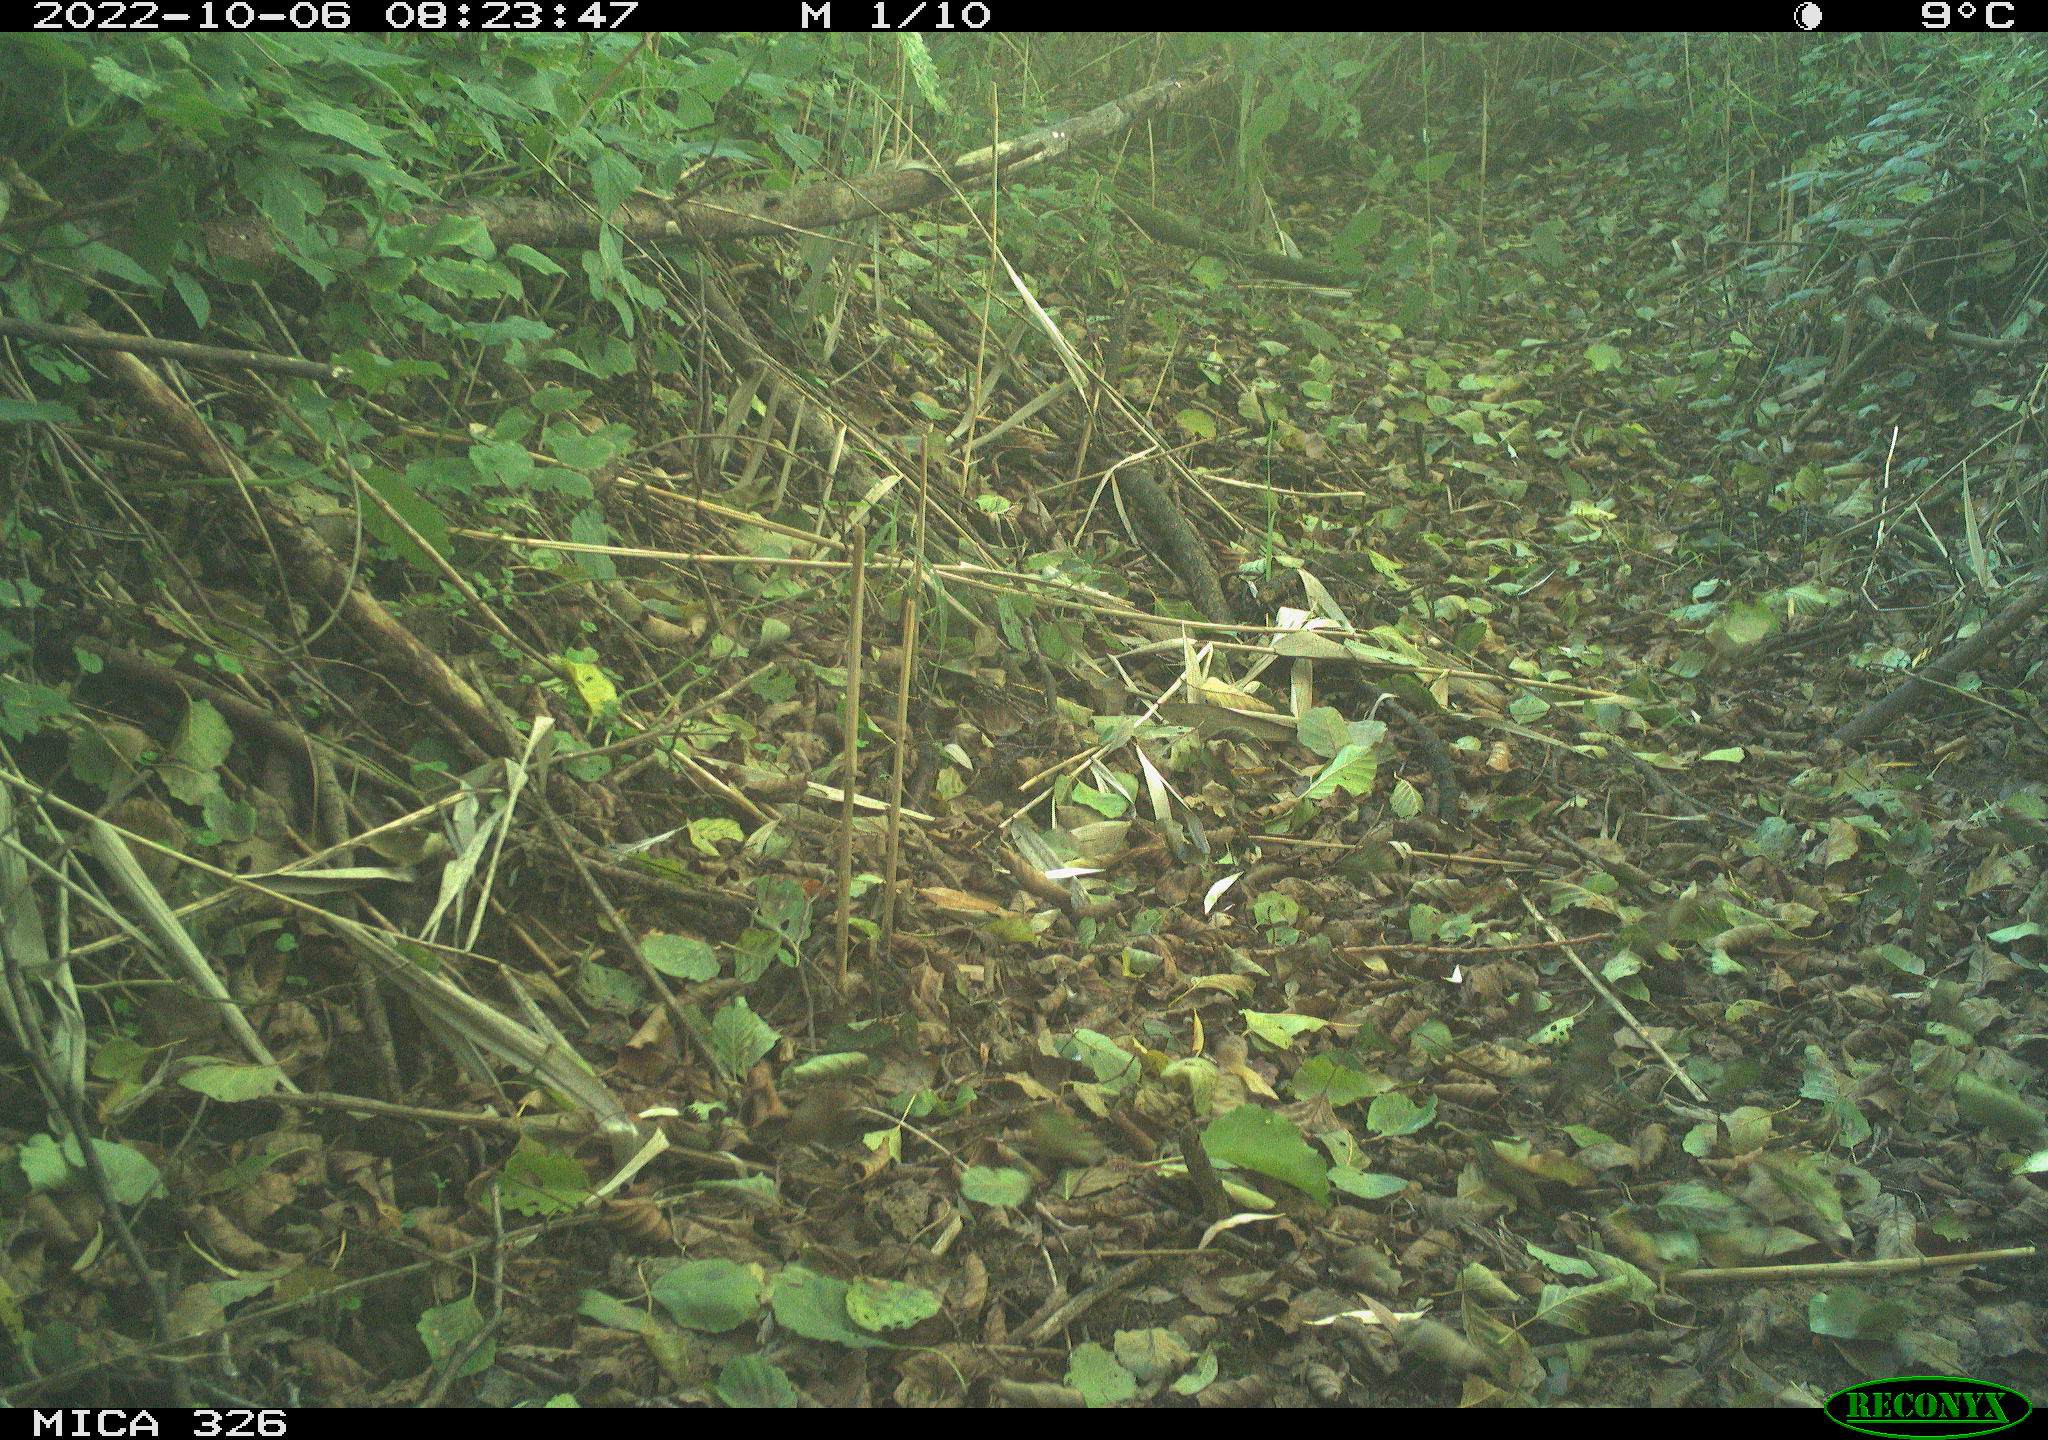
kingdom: Animalia
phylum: Chordata
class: Aves
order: Galliformes
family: Phasianidae
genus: Phasianus
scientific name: Phasianus colchicus
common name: Common pheasant
